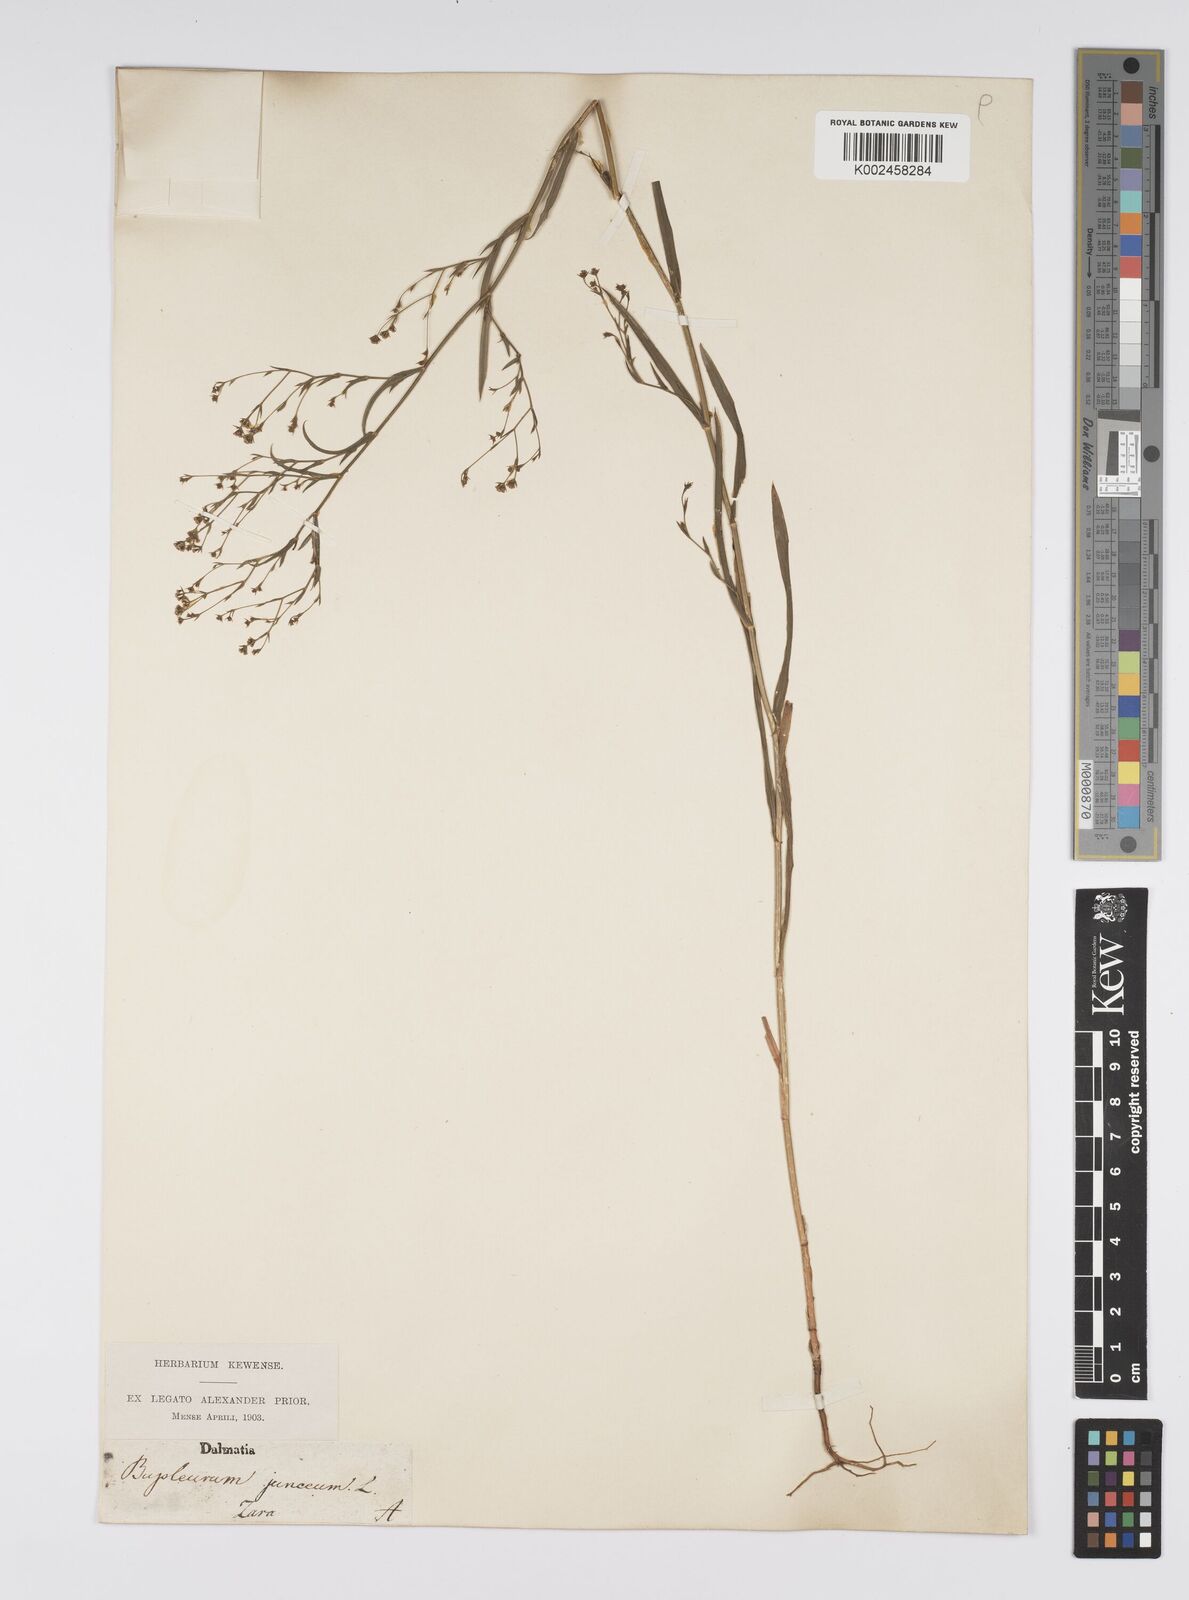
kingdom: Plantae
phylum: Tracheophyta
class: Magnoliopsida
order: Apiales
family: Apiaceae
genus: Bupleurum
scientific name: Bupleurum praealtum
